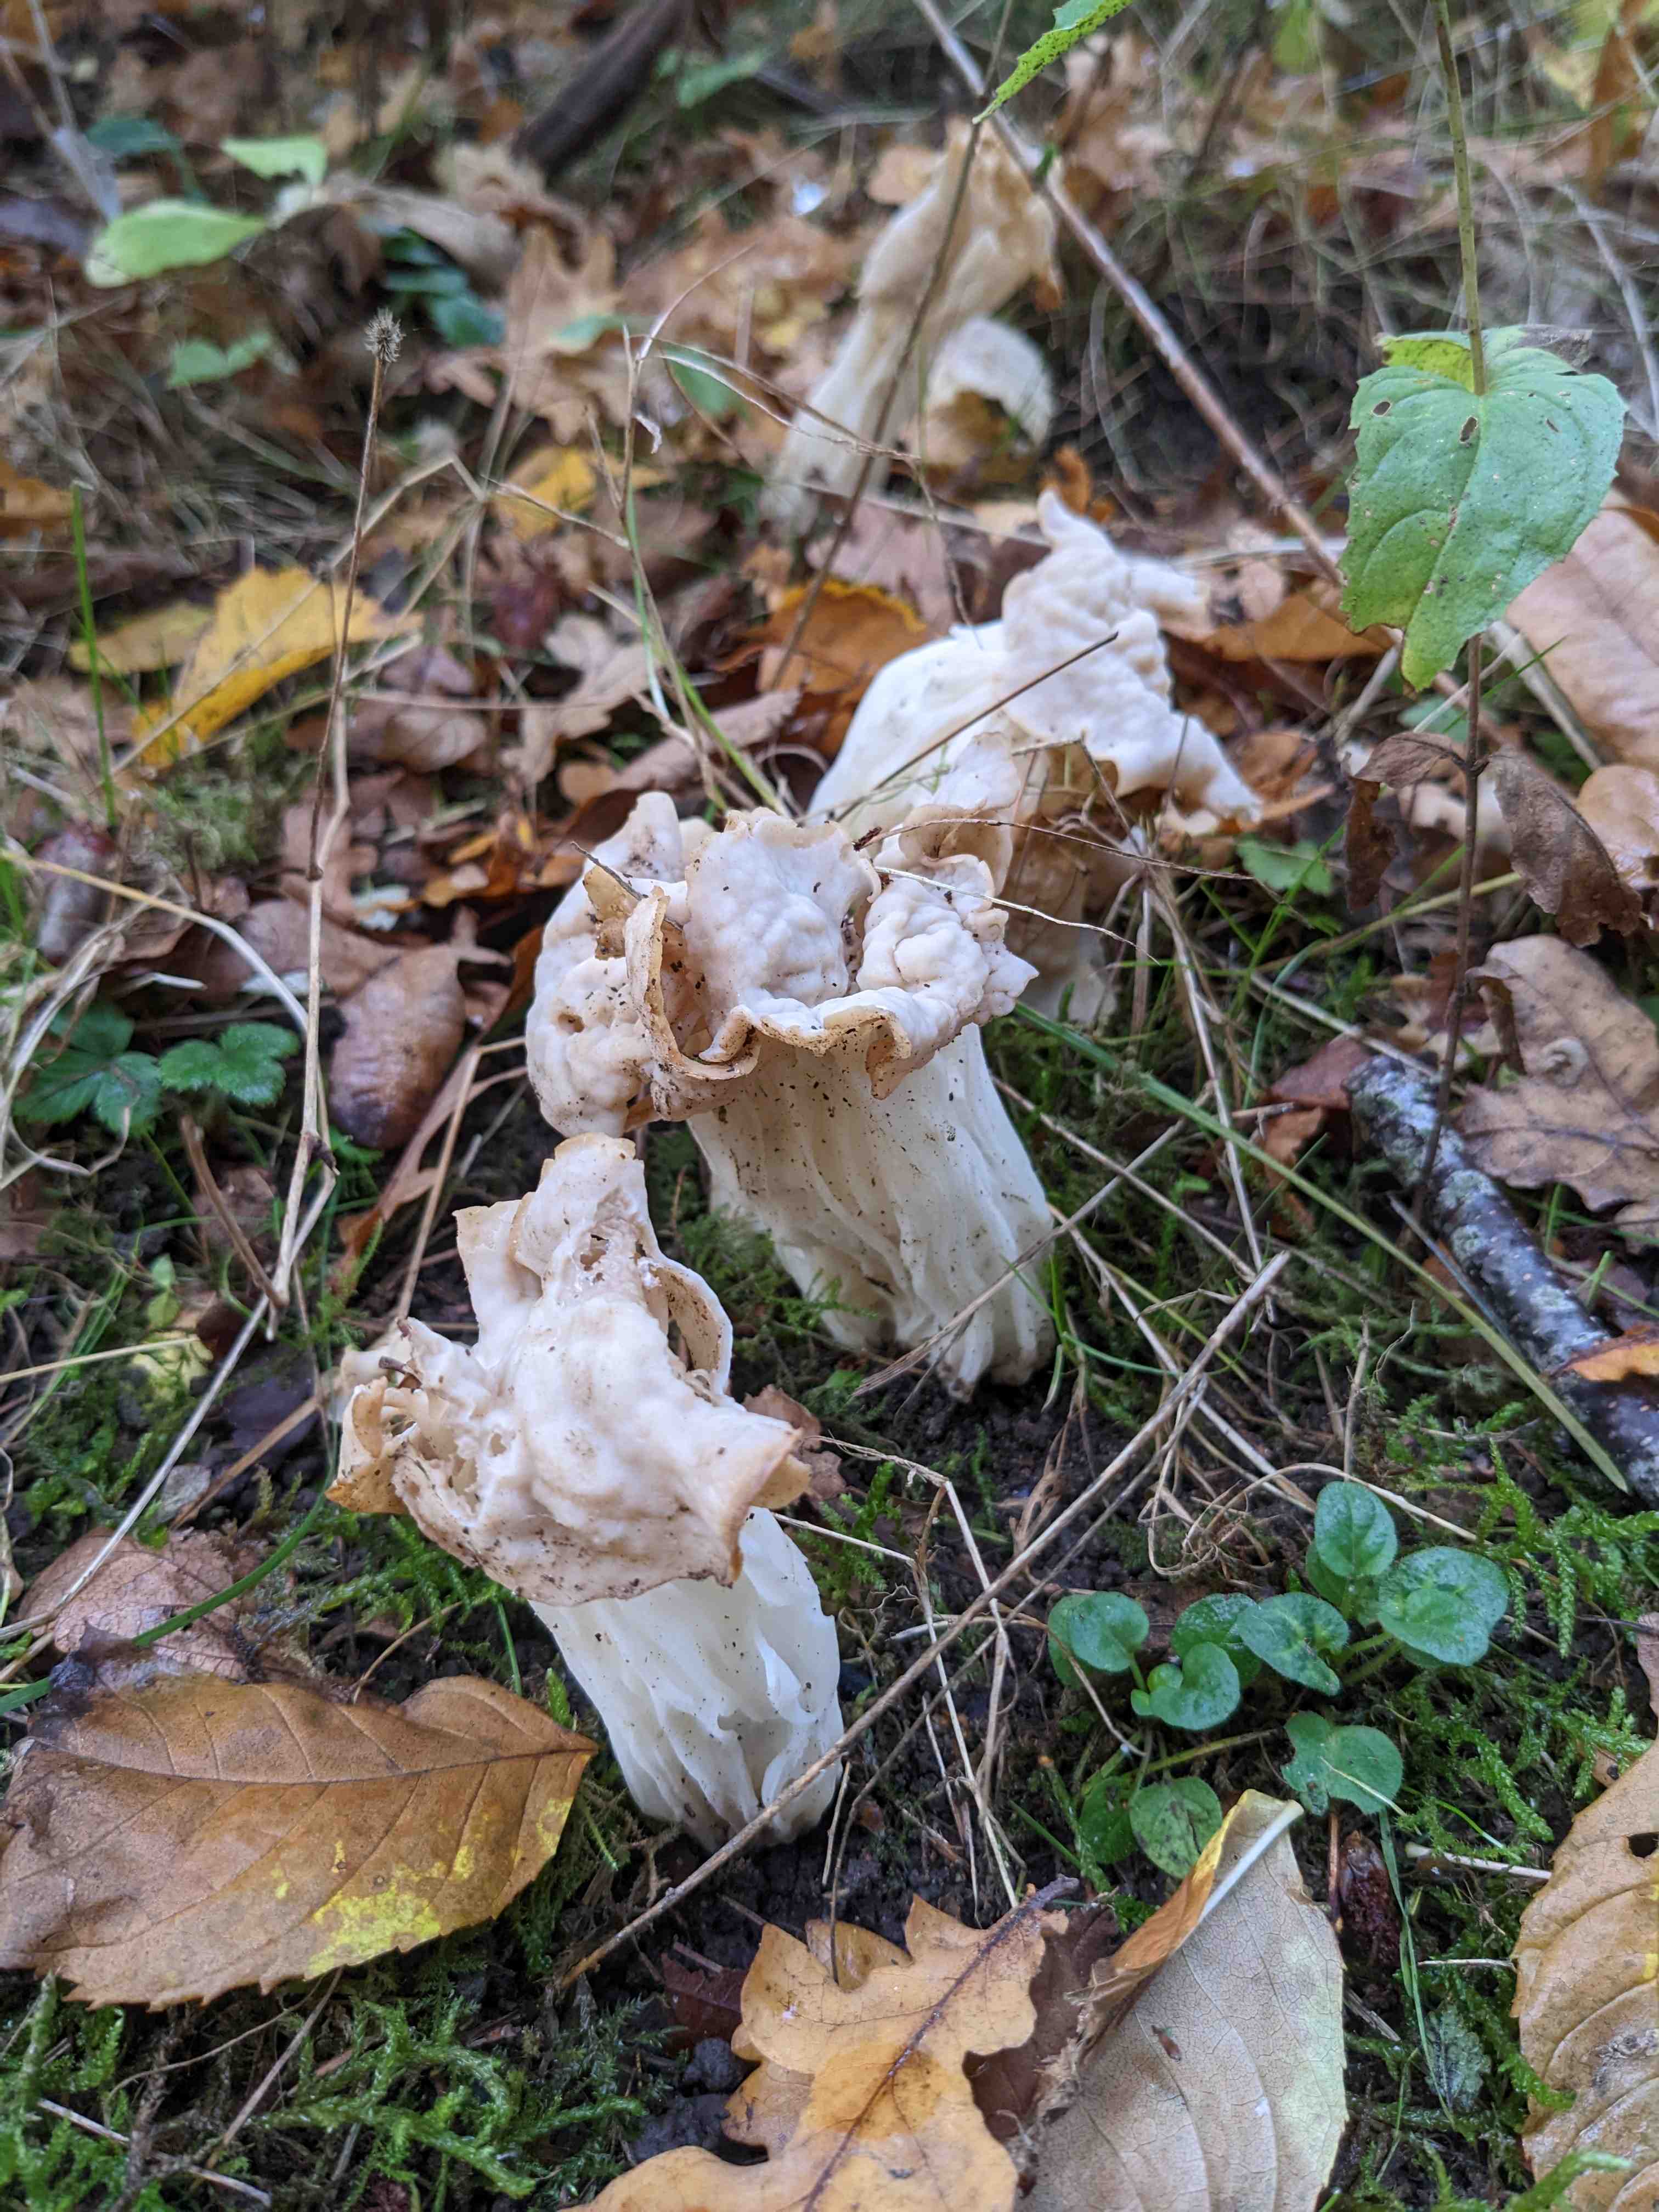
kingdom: Fungi
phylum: Ascomycota
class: Pezizomycetes
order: Pezizales
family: Helvellaceae
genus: Helvella
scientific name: Helvella crispa
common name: kruset foldhat
